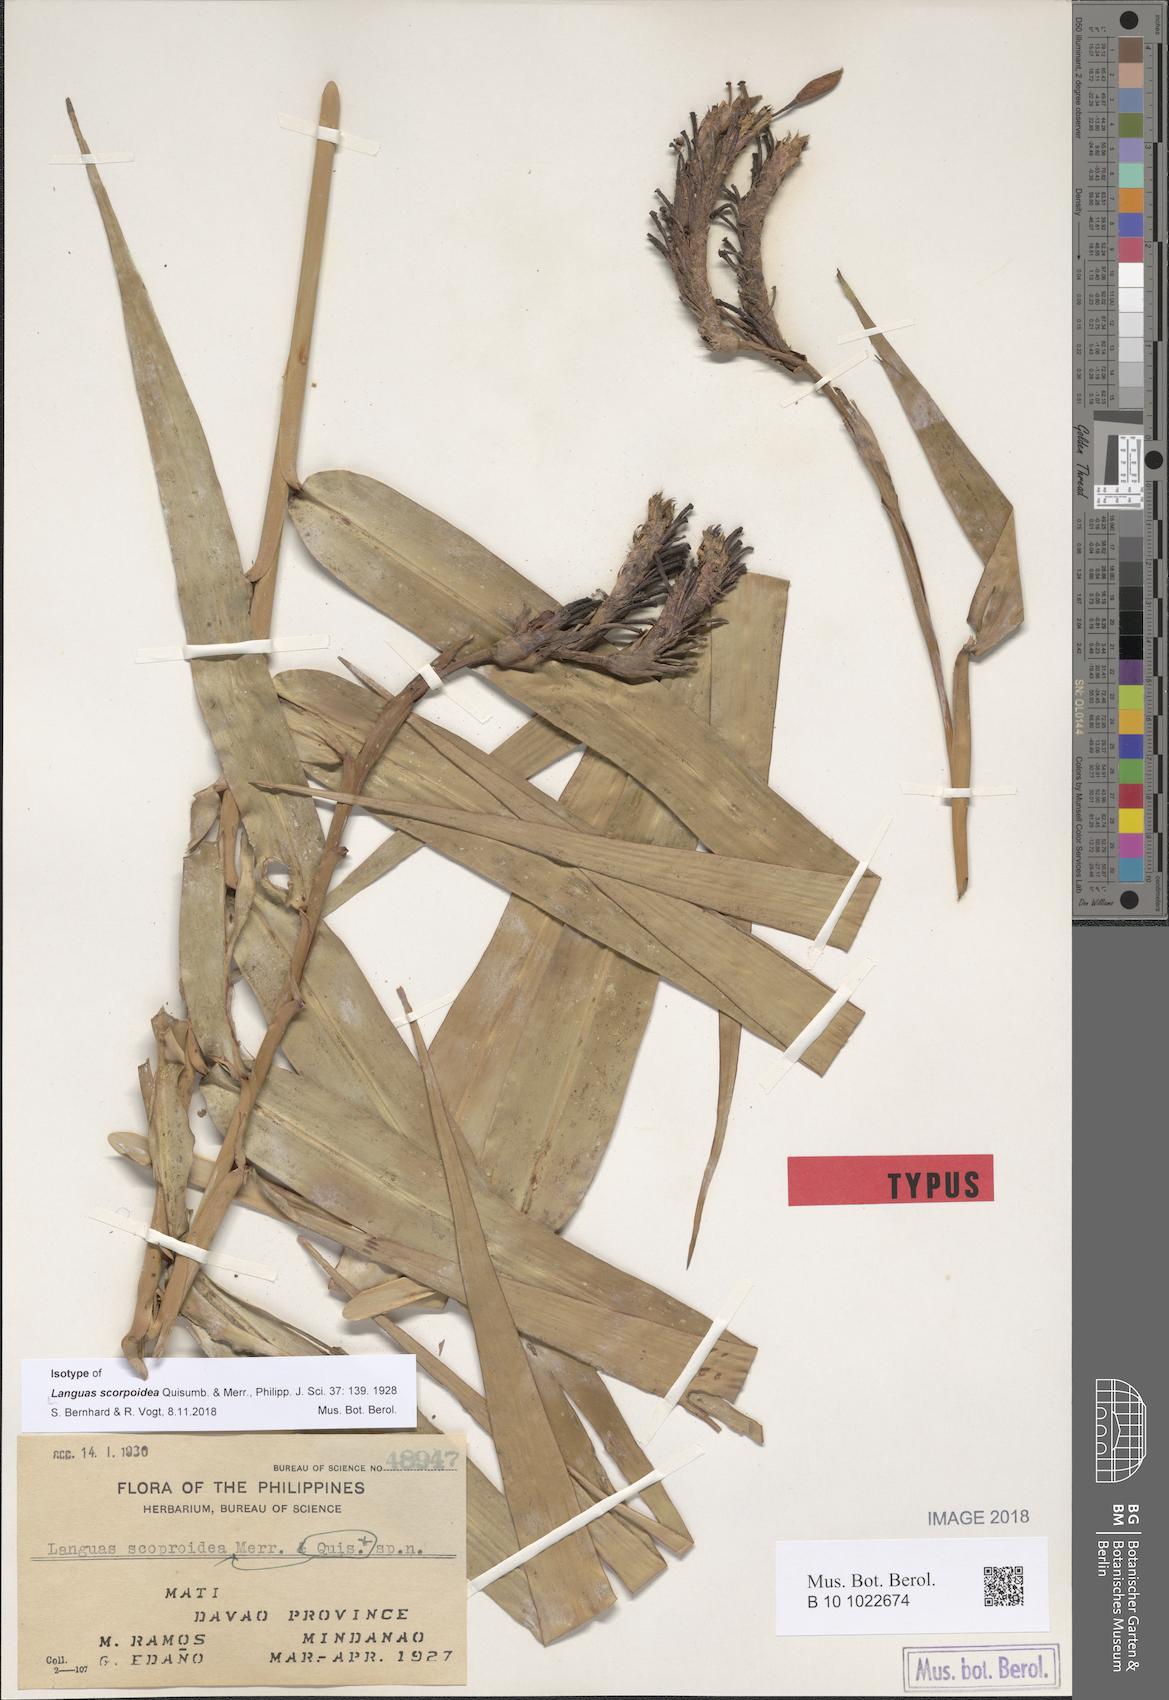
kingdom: Plantae
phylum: Tracheophyta
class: Liliopsida
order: Zingiberales
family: Zingiberaceae
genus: Alpinia
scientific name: Alpinia Languas scorpoidea
